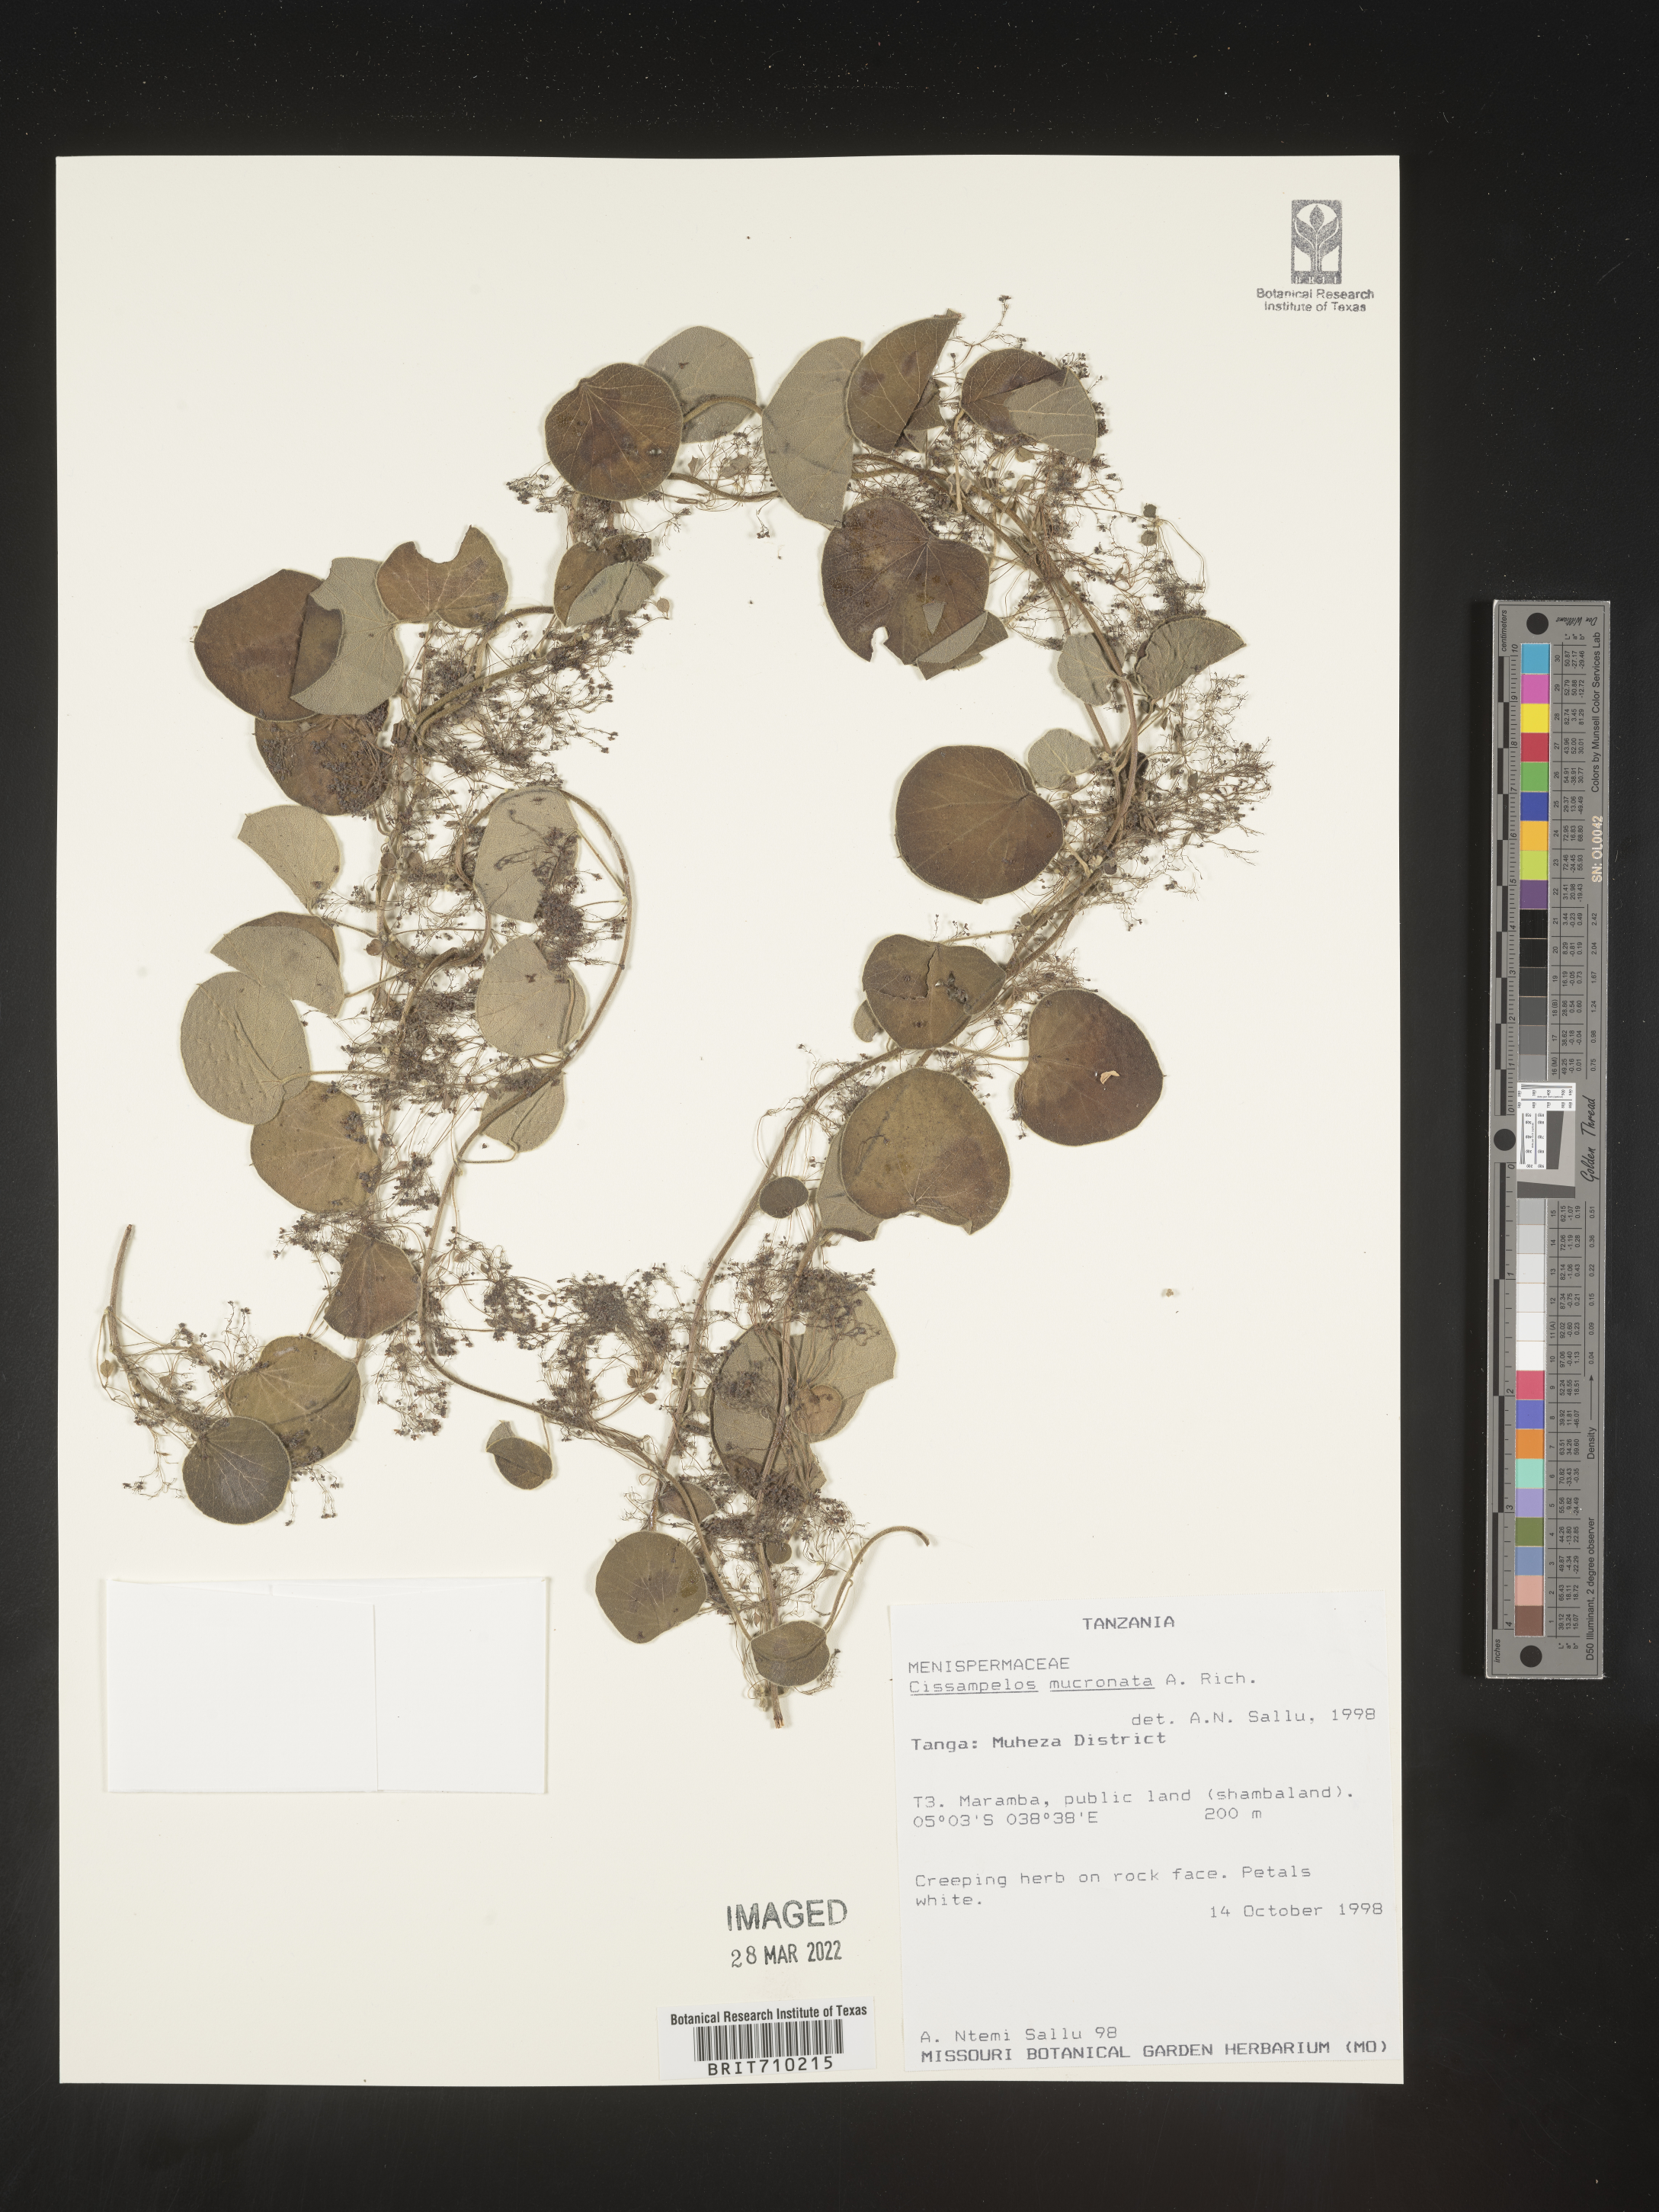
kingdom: Plantae
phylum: Tracheophyta
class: Magnoliopsida
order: Ranunculales
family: Menispermaceae
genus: Cissampelos
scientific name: Cissampelos
